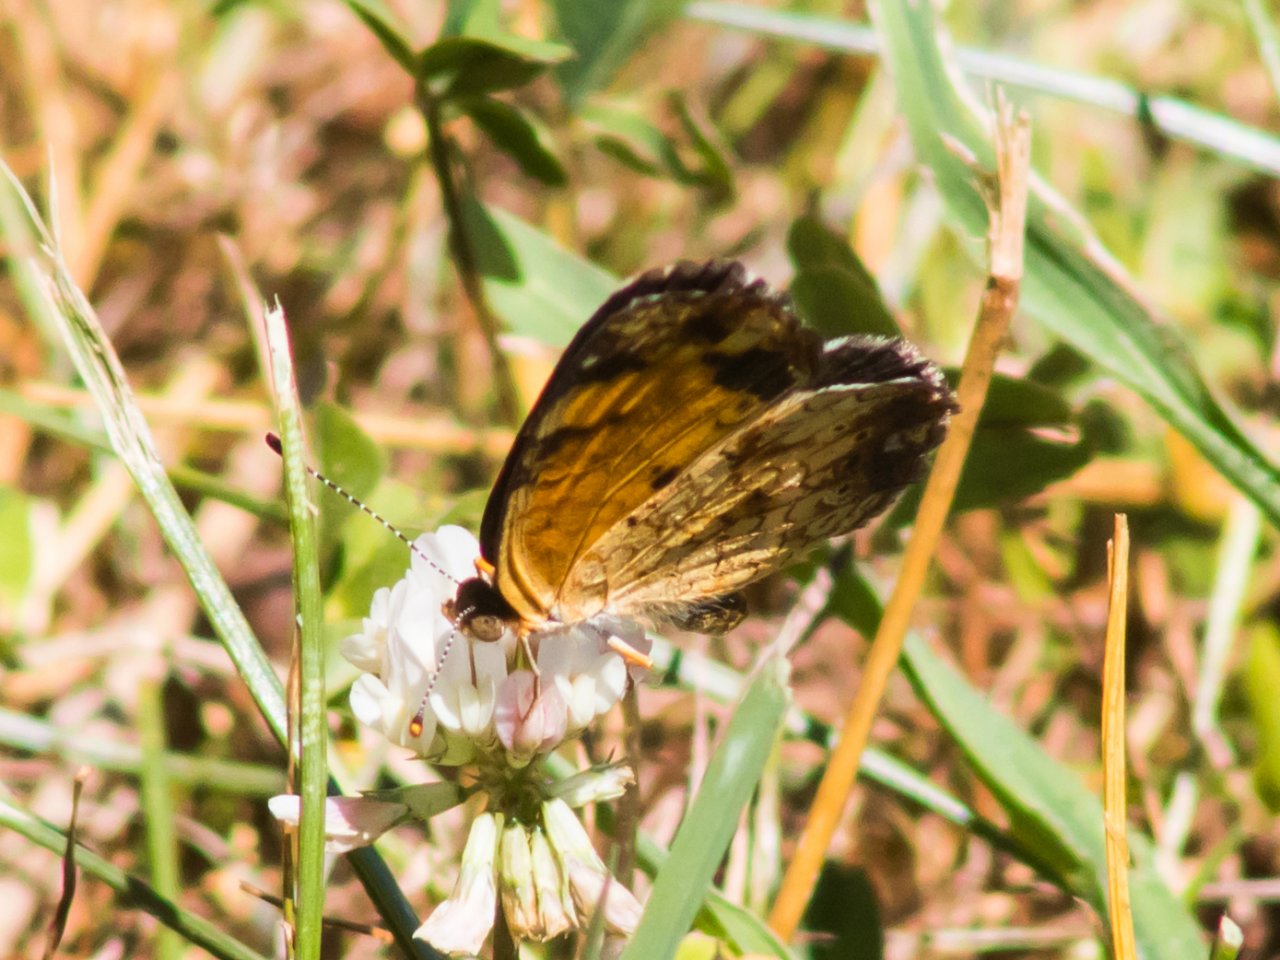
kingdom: Animalia
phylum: Arthropoda
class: Insecta
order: Lepidoptera
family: Nymphalidae
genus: Phyciodes
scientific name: Phyciodes tharos
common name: Pearl Crescent
